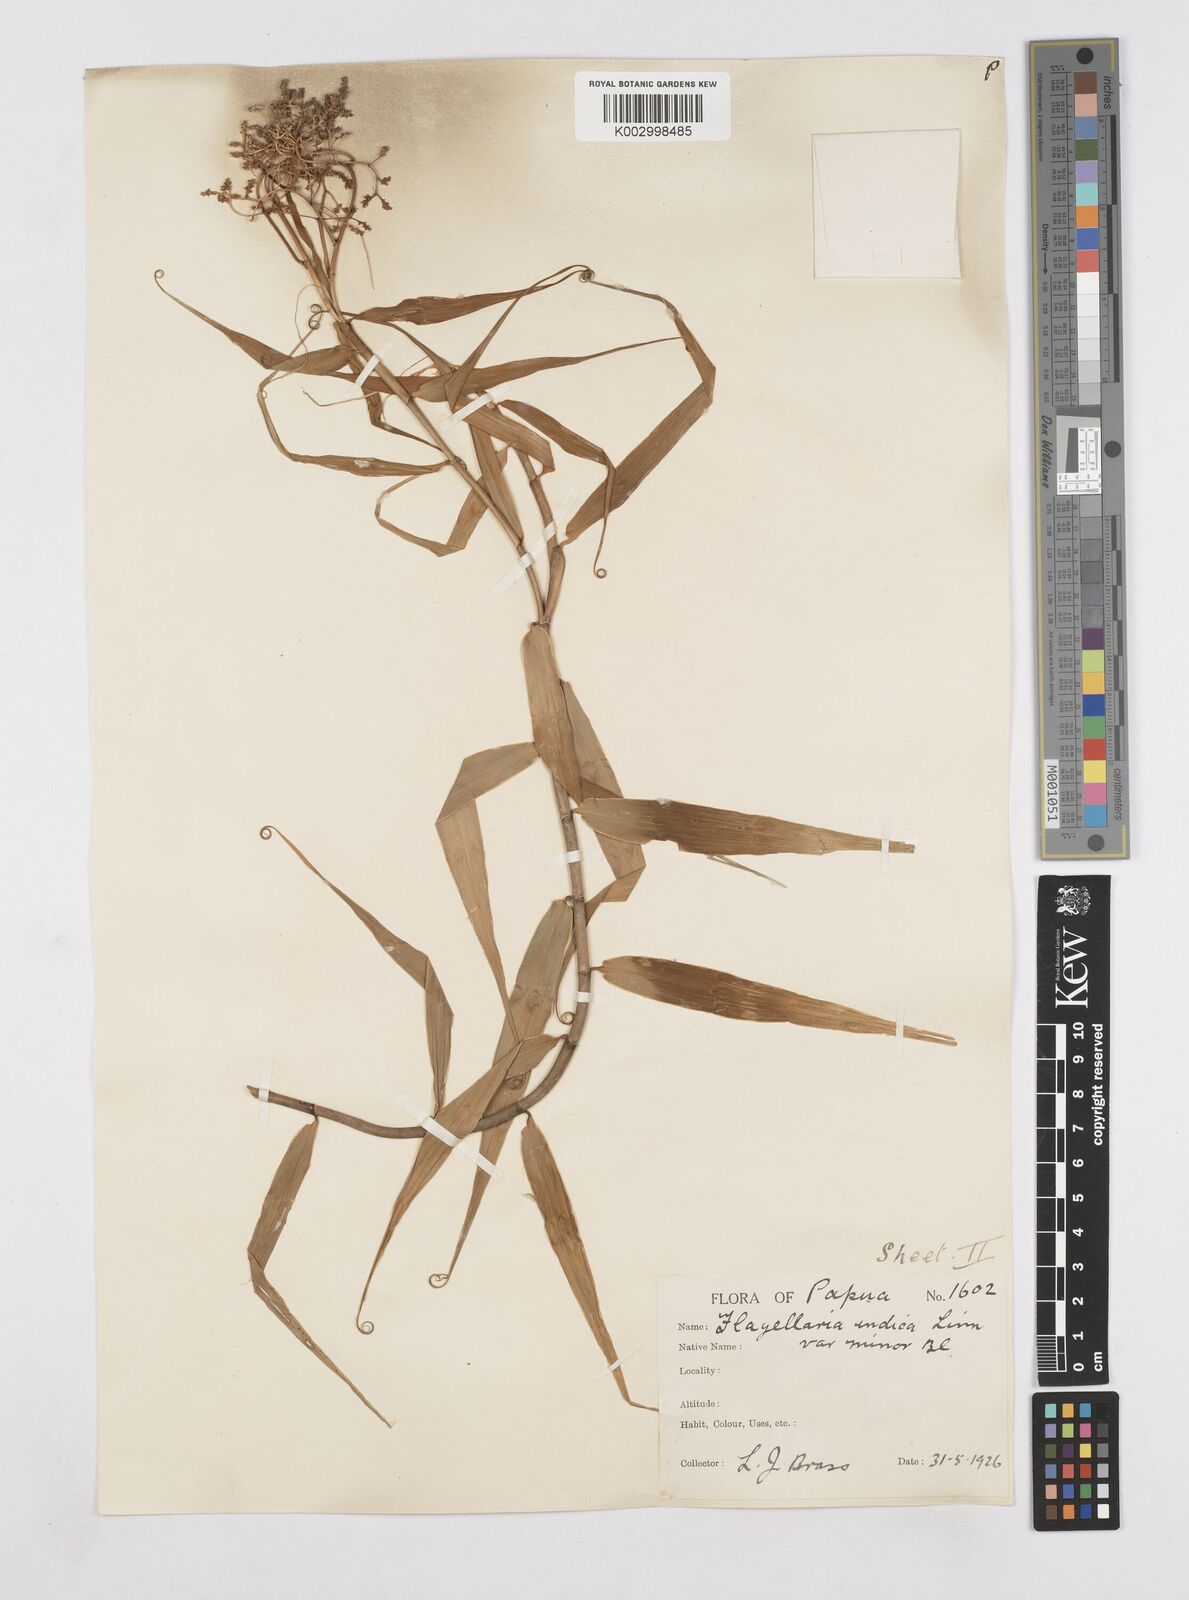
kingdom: Plantae
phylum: Tracheophyta
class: Liliopsida
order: Poales
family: Flagellariaceae
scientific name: Flagellariaceae
